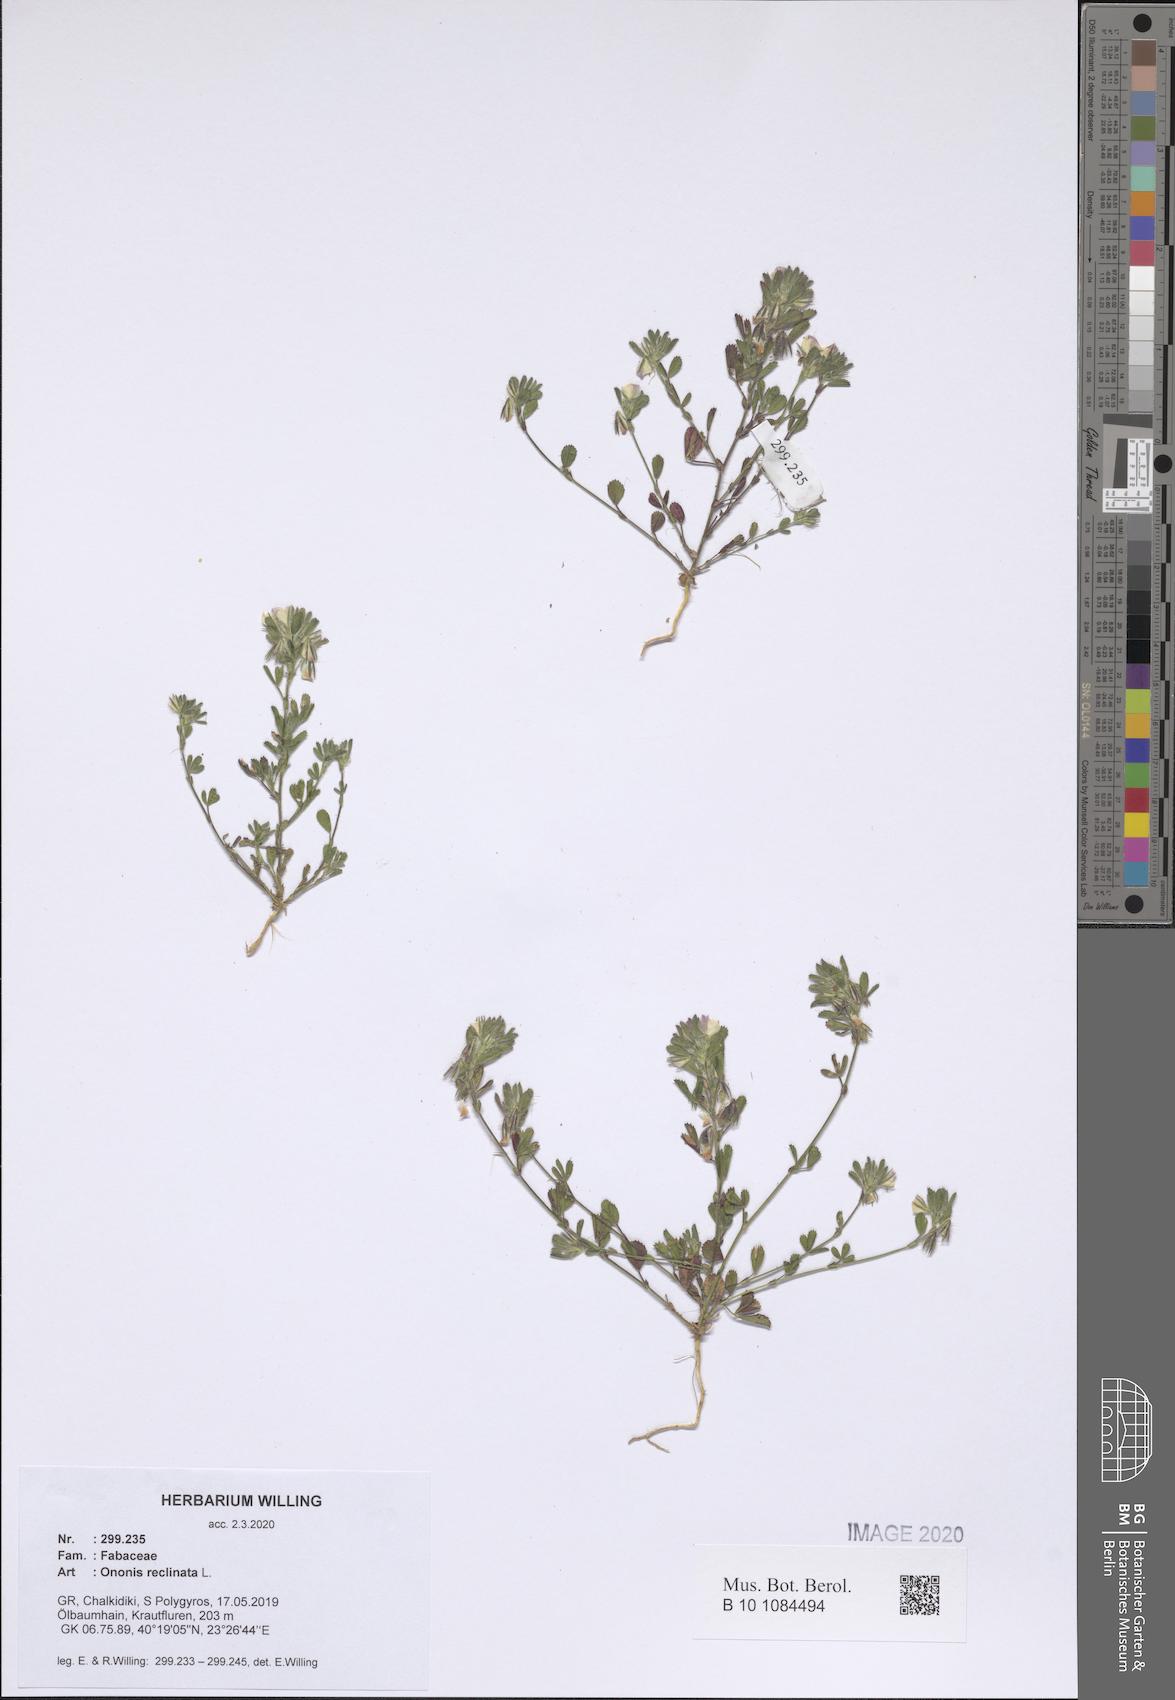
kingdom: Plantae
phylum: Tracheophyta
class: Magnoliopsida
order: Fabales
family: Fabaceae
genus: Ononis
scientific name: Ononis reclinata
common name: Small restharrow
